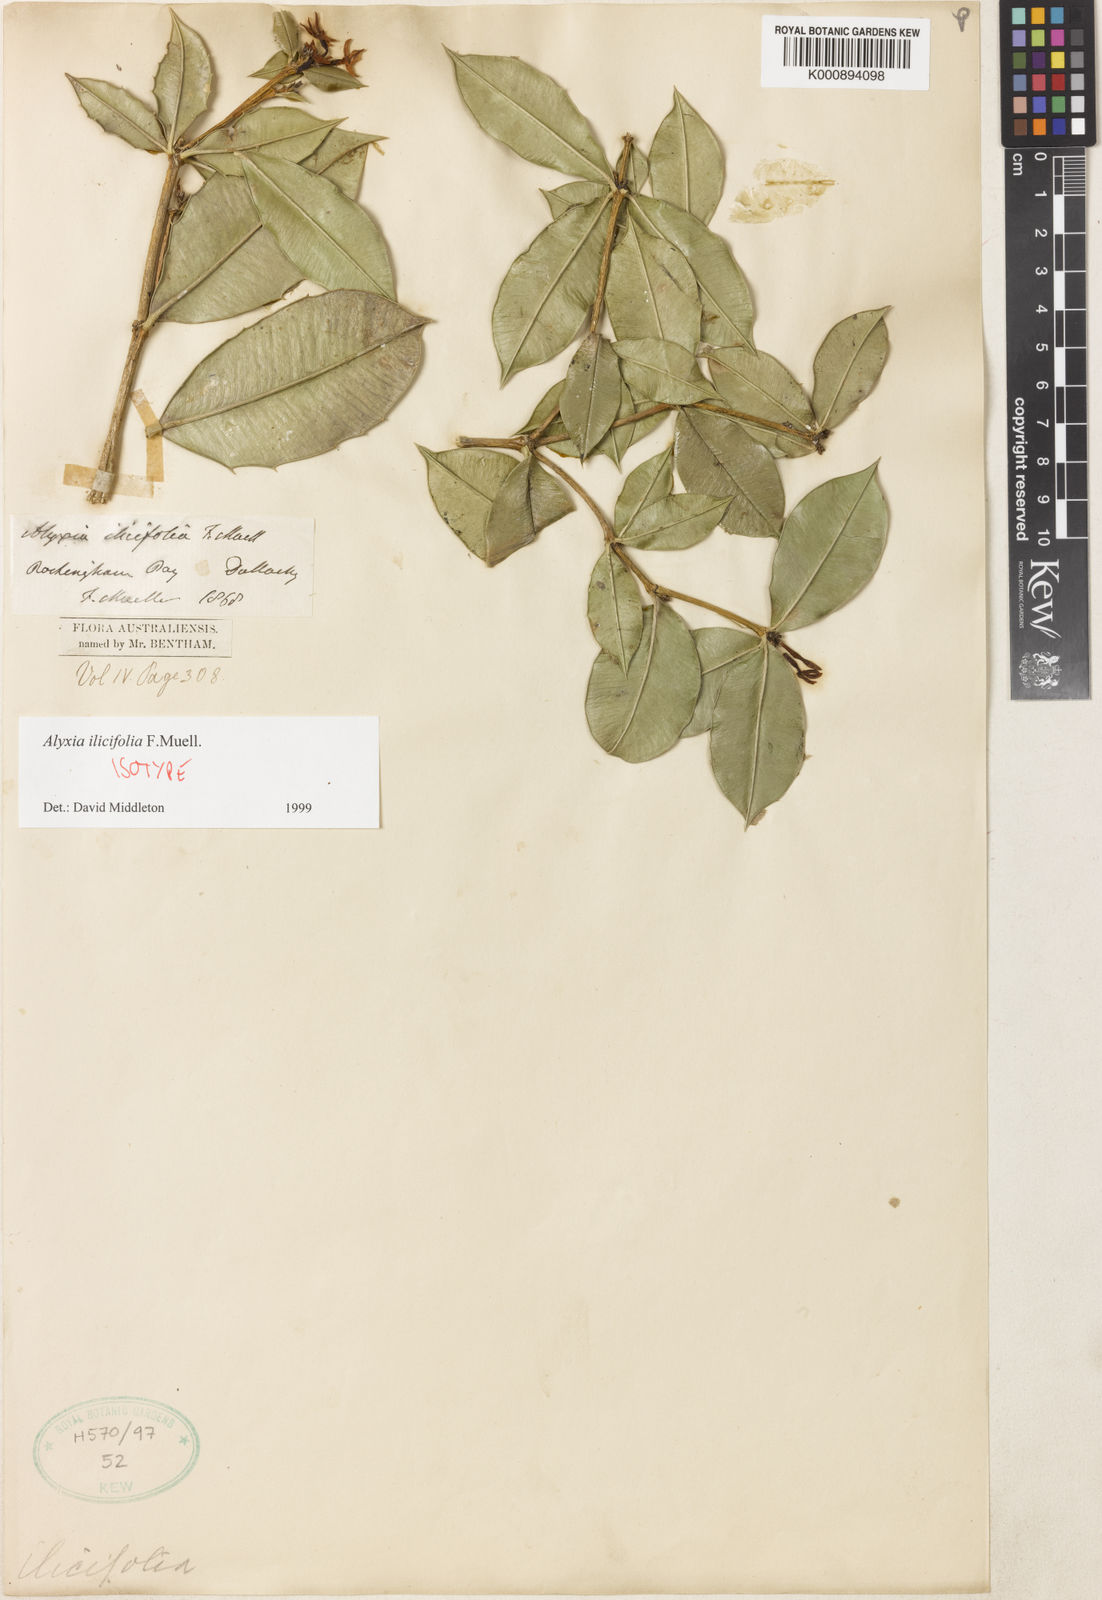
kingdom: Plantae
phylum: Tracheophyta
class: Magnoliopsida
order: Gentianales
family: Apocynaceae
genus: Alyxia
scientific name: Alyxia ilicifolia
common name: Chainfruit
